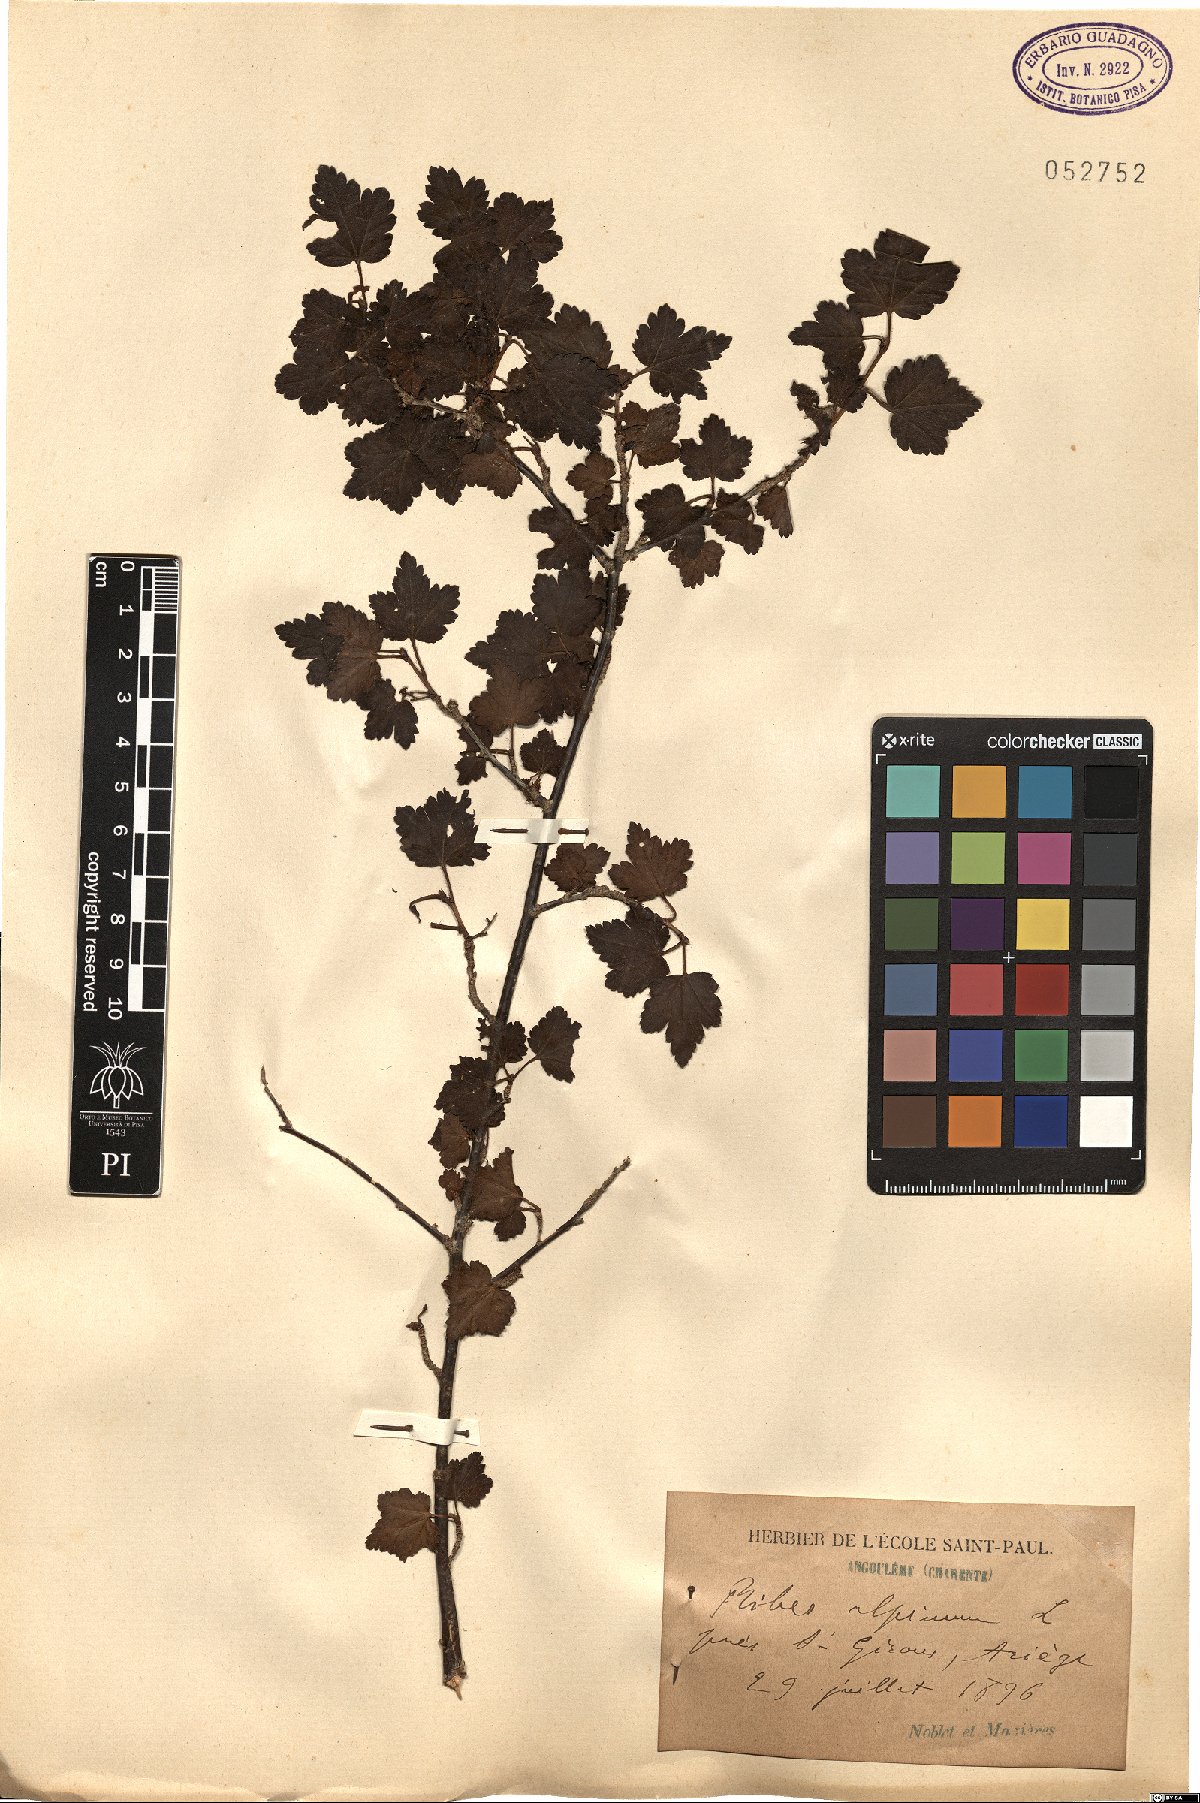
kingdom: Plantae
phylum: Tracheophyta
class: Magnoliopsida
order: Saxifragales
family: Grossulariaceae
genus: Ribes
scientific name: Ribes alpinum
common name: Alpine currant
